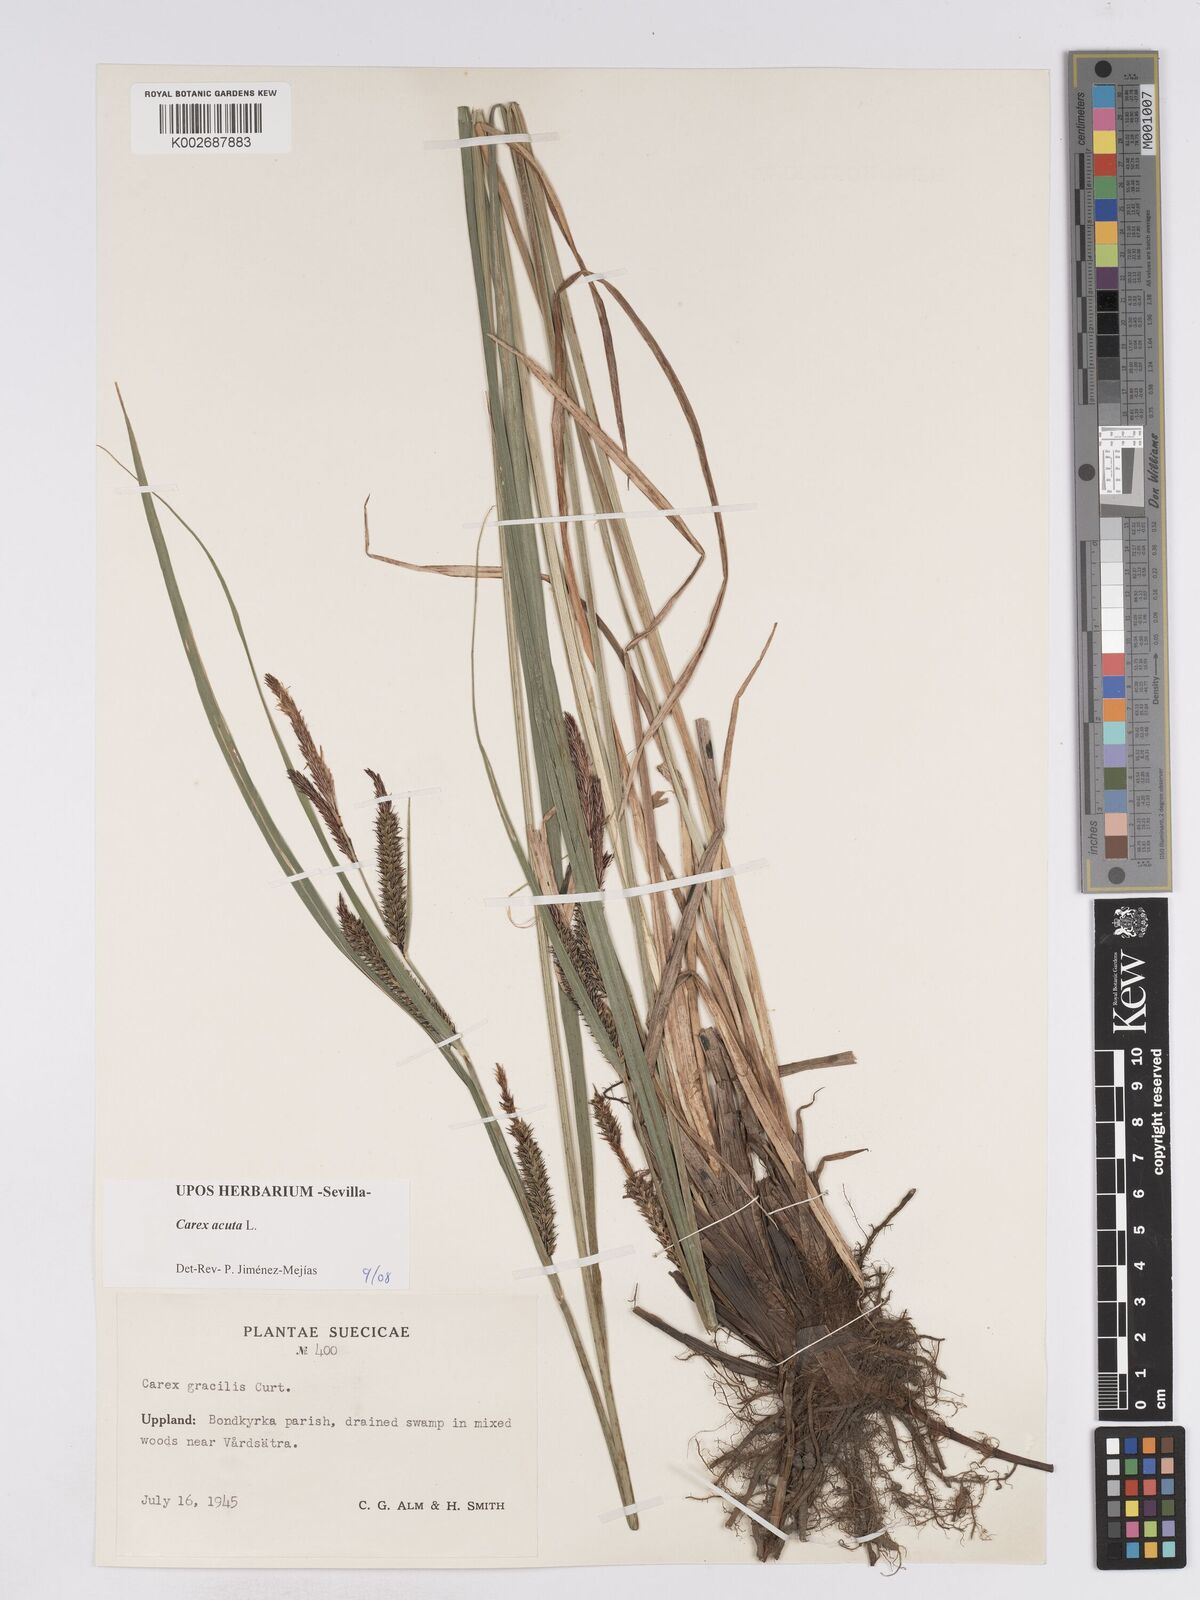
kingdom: Plantae
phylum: Tracheophyta
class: Liliopsida
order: Poales
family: Cyperaceae
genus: Carex
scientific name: Carex acuta
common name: Slender tufted-sedge
